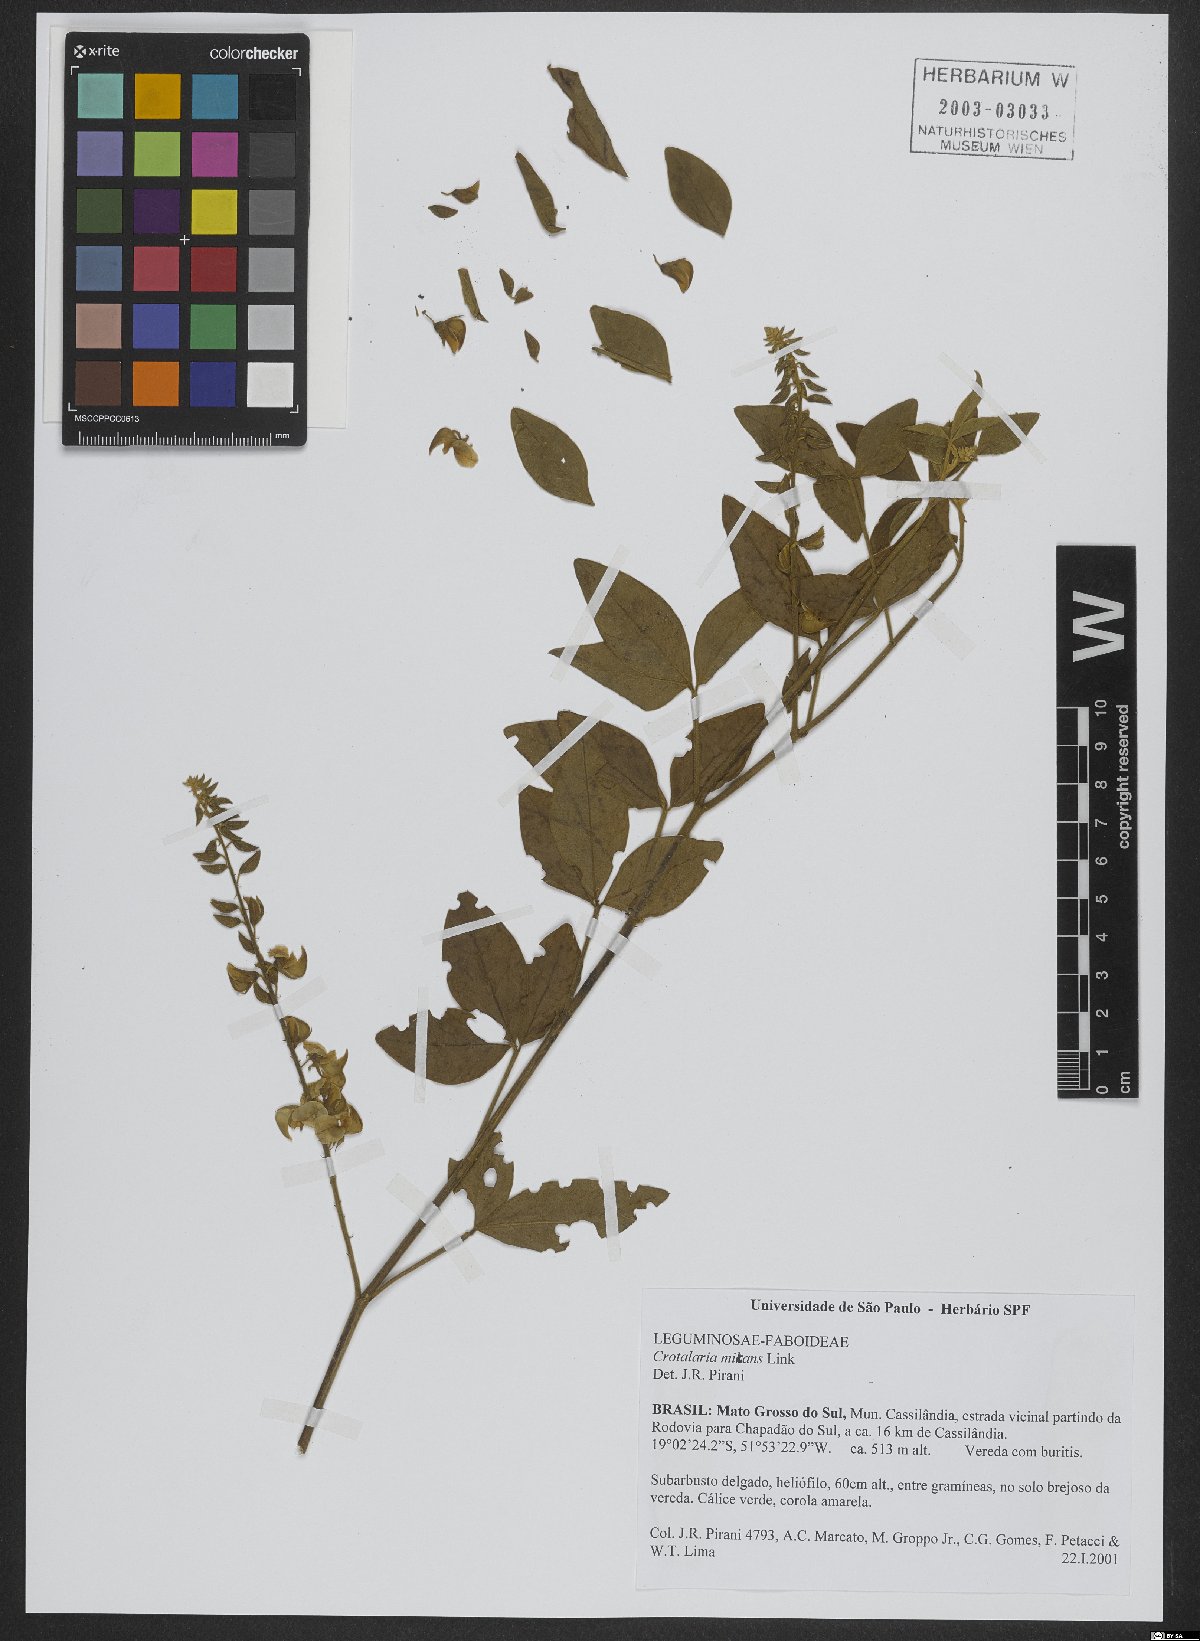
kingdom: Plantae
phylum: Tracheophyta
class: Magnoliopsida
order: Fabales
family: Fabaceae
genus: Crotalaria
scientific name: Crotalaria micans
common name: Caracas rattlebox
